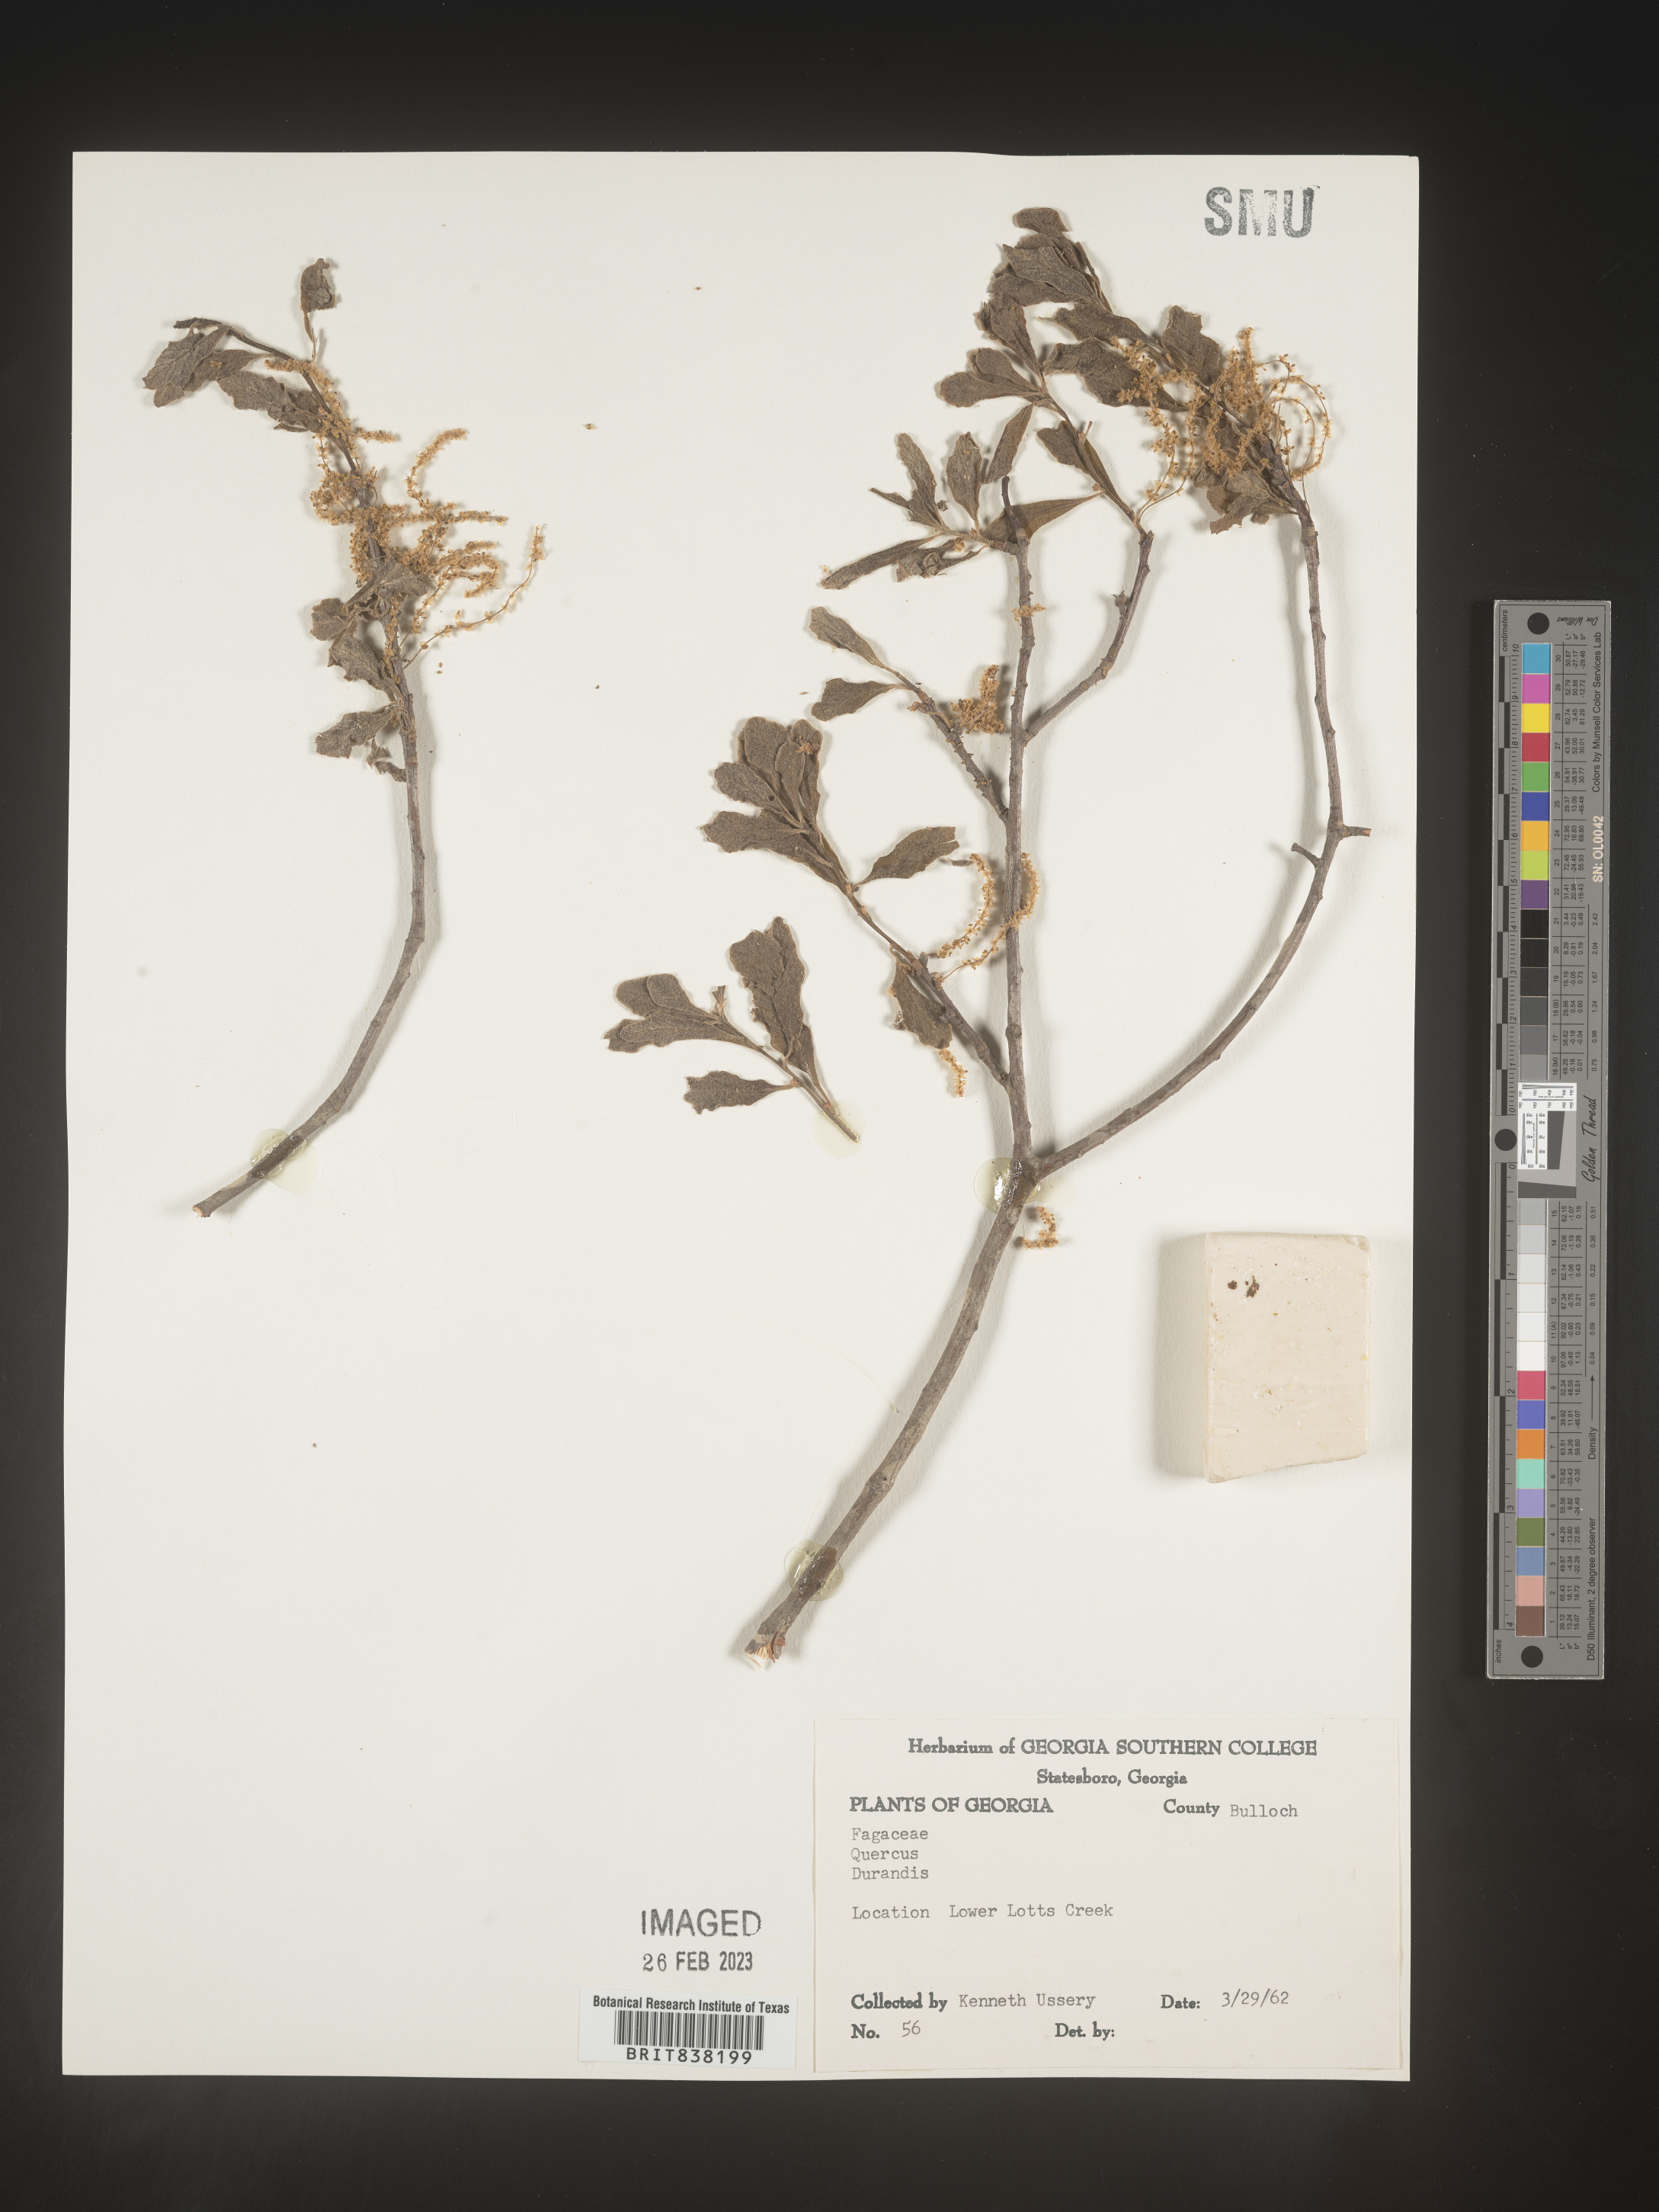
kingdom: Plantae
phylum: Tracheophyta
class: Magnoliopsida
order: Fagales
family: Fagaceae
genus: Quercus
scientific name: Quercus sinuata
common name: Durand oak
